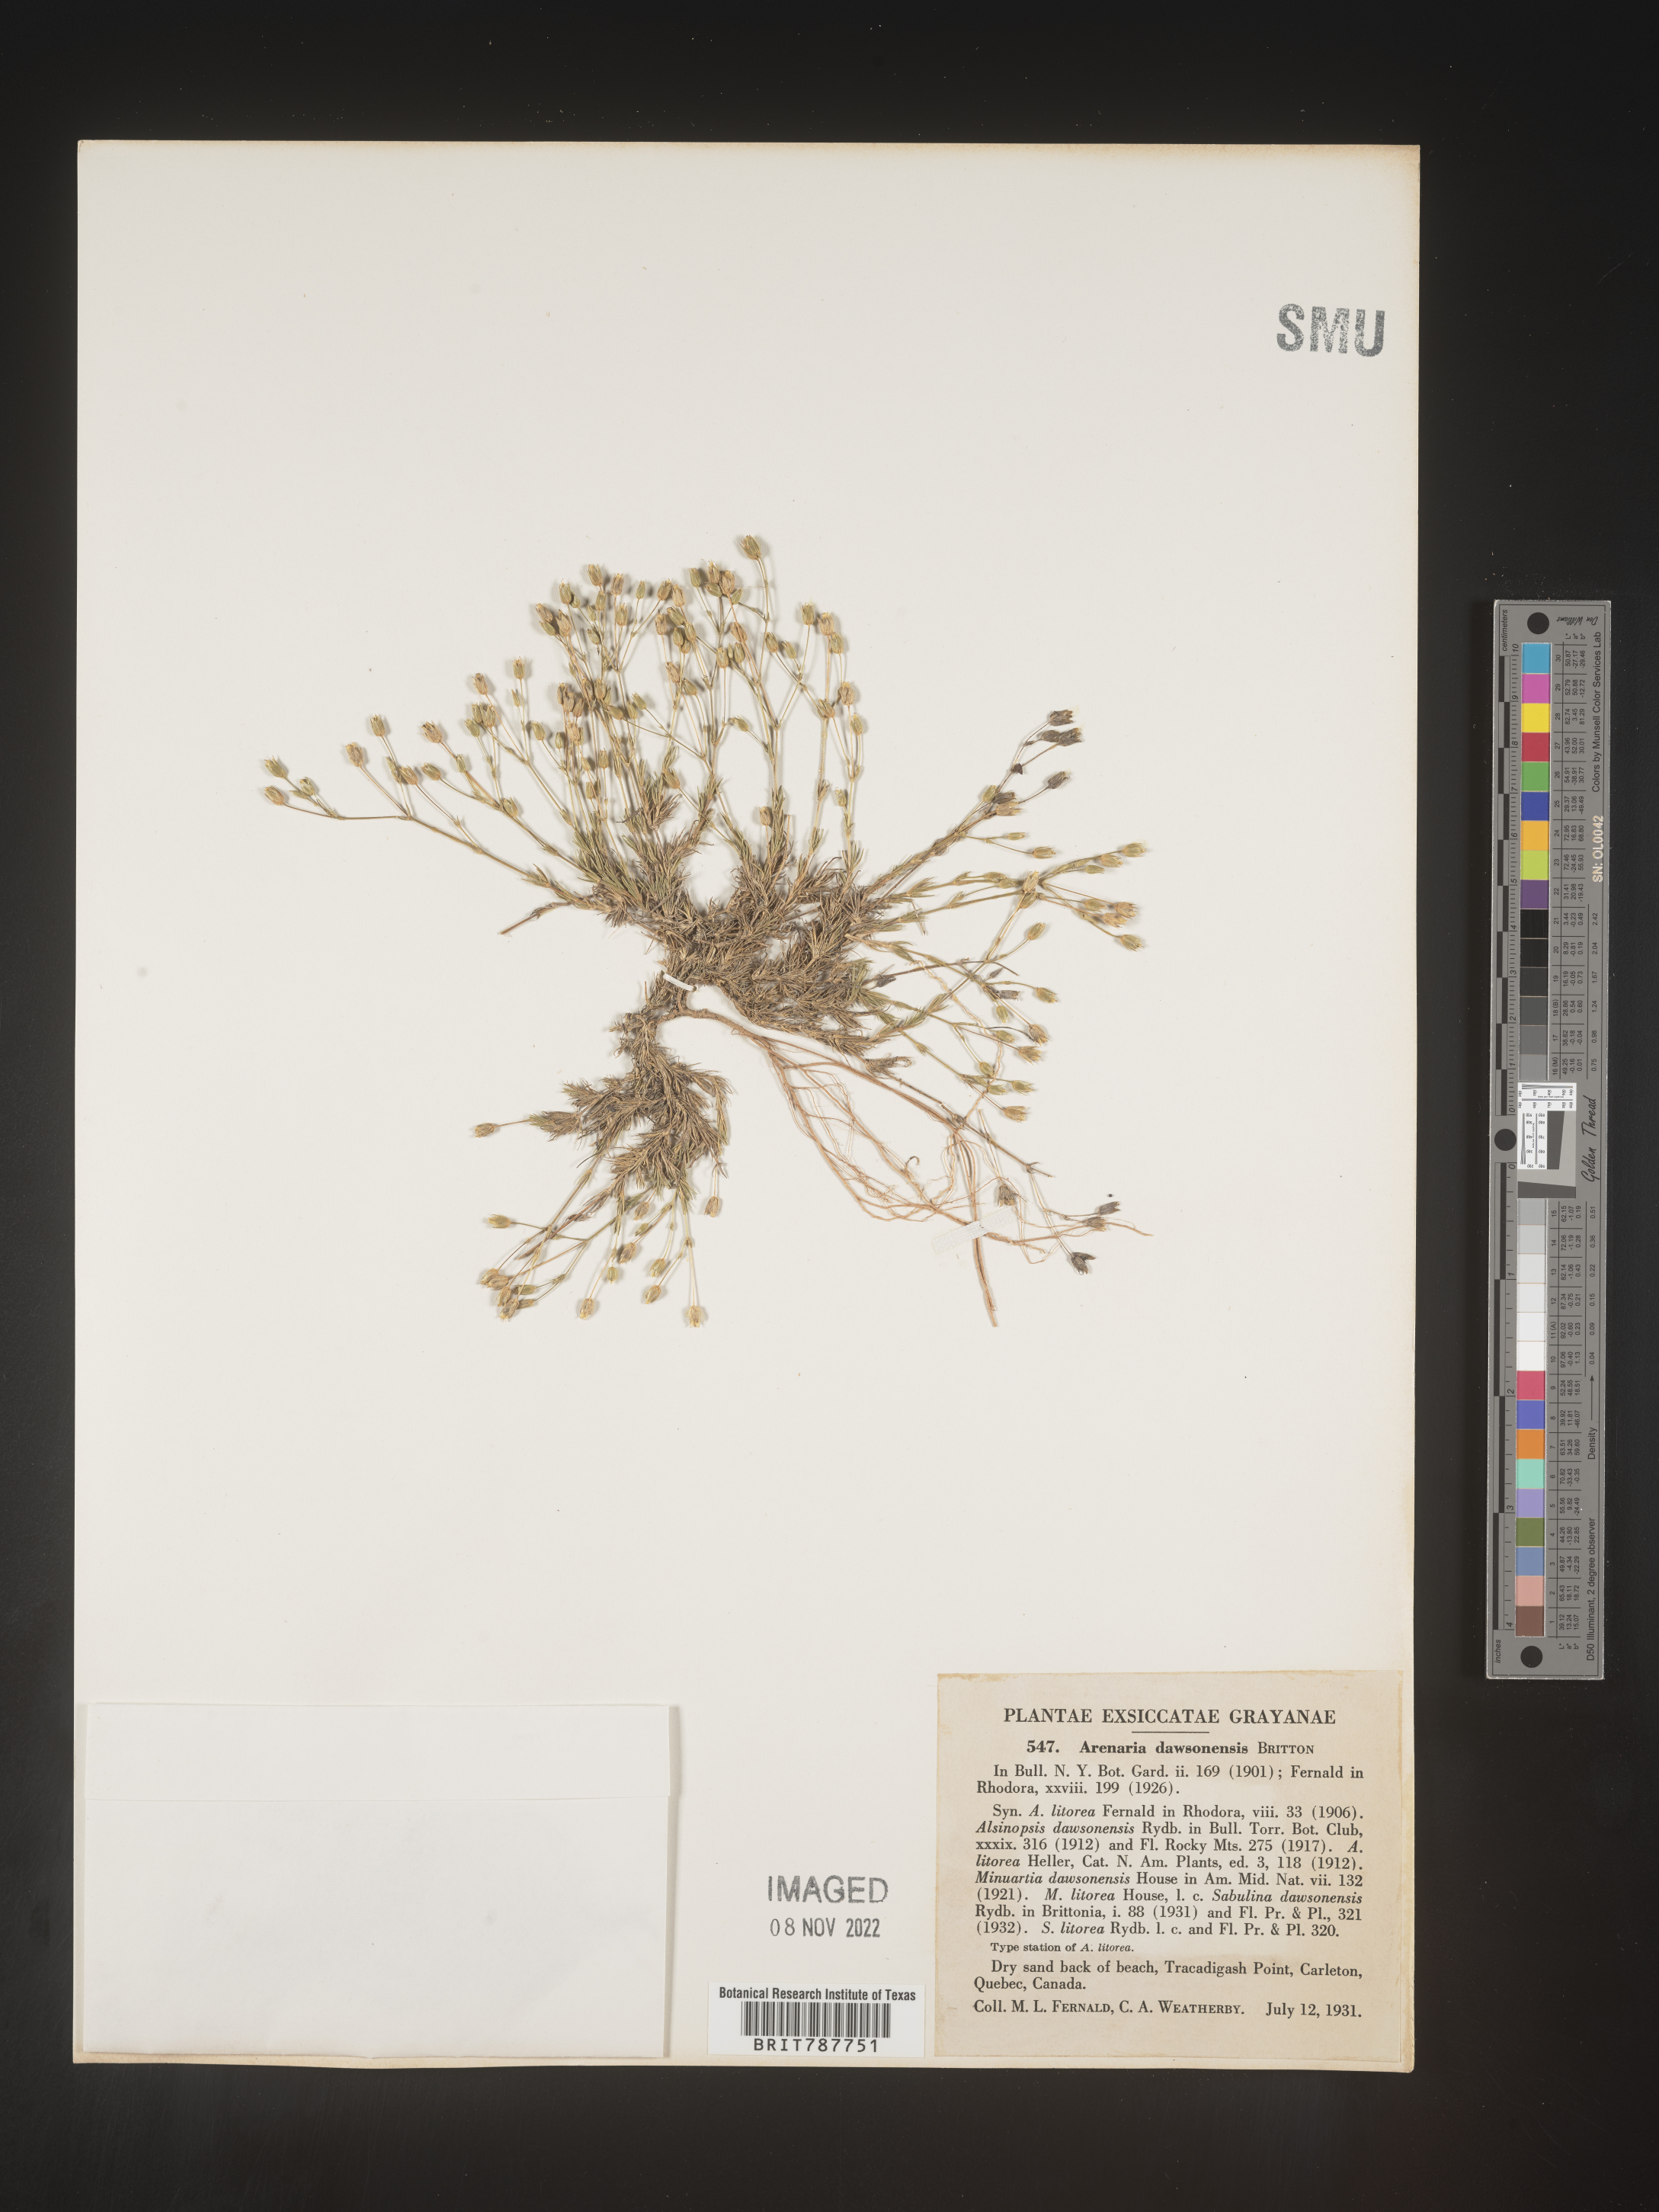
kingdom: Plantae
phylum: Tracheophyta
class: Magnoliopsida
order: Caryophyllales
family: Caryophyllaceae
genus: Arenaria
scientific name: Arenaria
